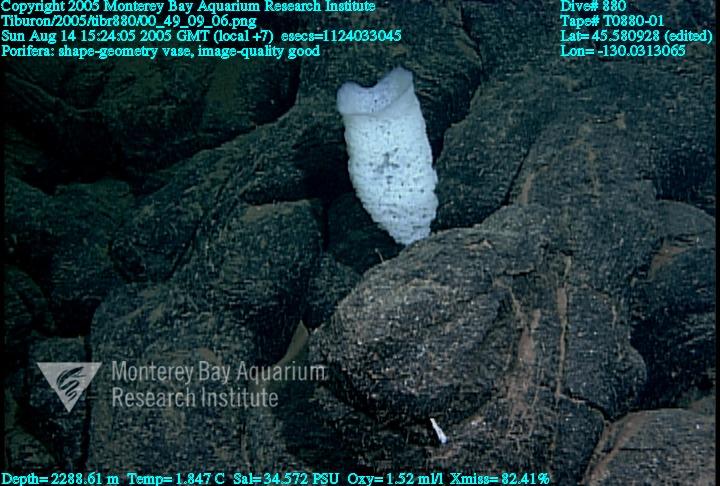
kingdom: Animalia
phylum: Porifera
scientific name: Porifera
